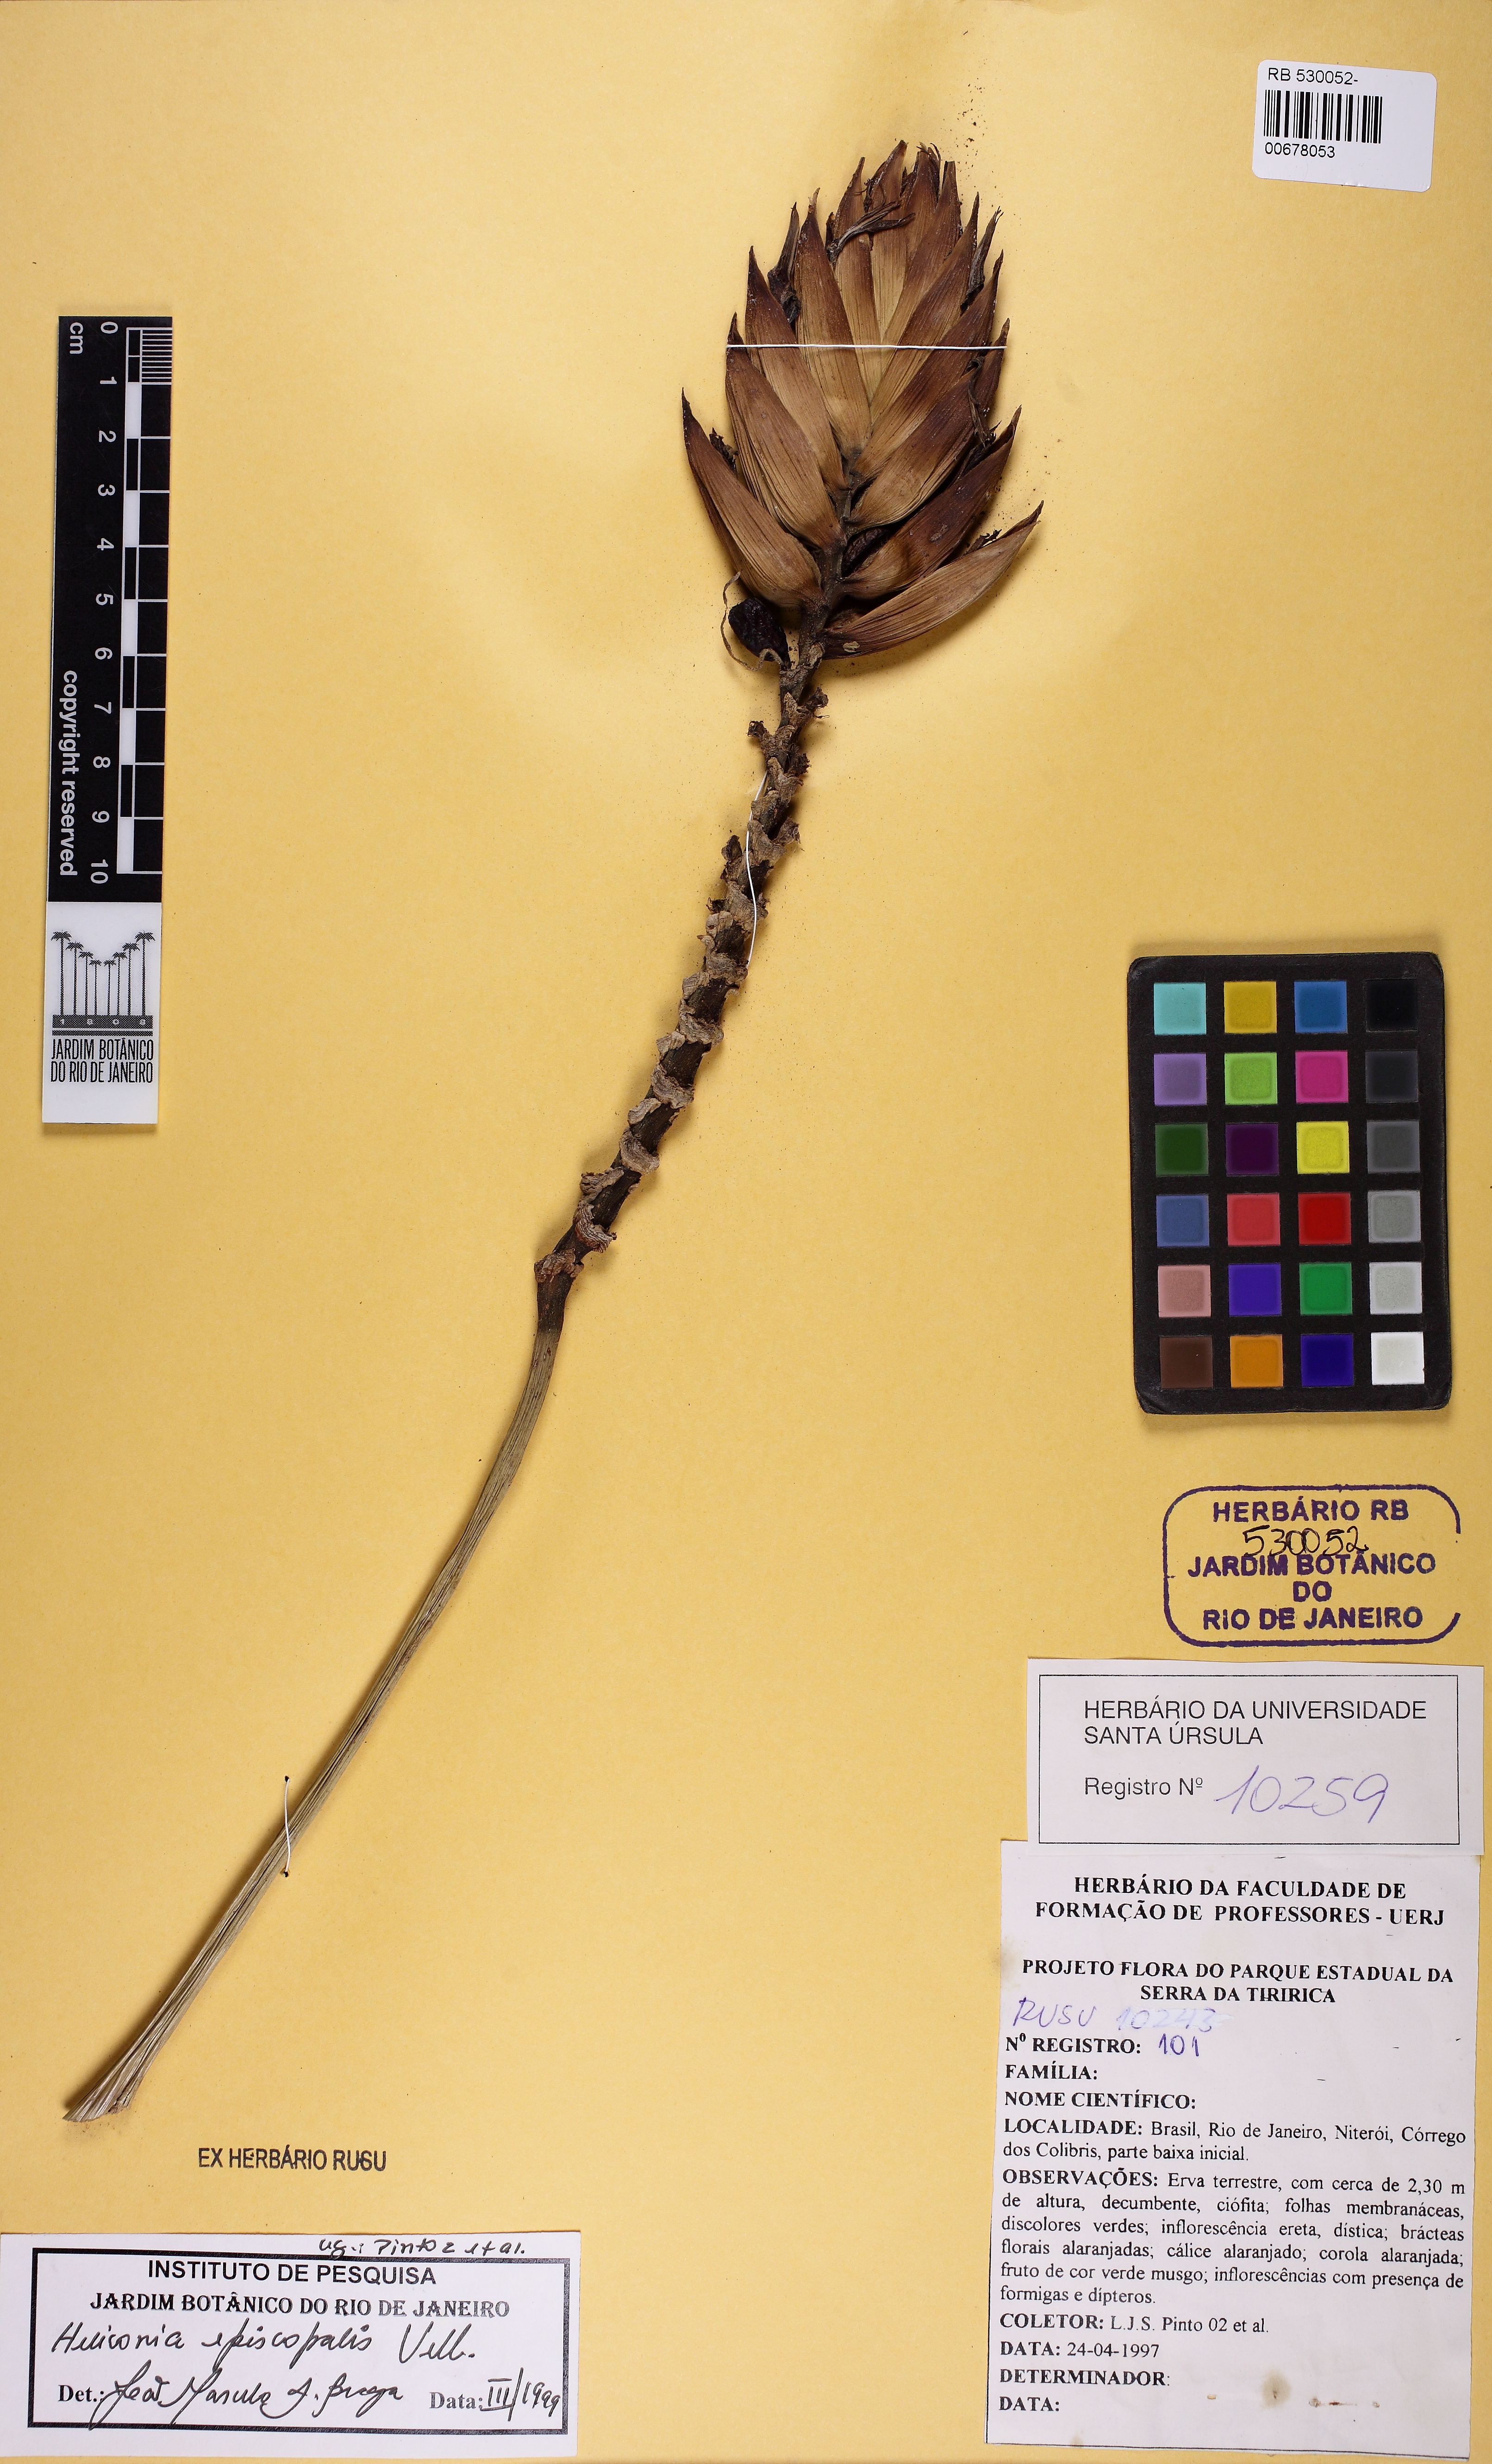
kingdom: Plantae
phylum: Tracheophyta
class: Liliopsida
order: Zingiberales
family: Heliconiaceae
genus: Heliconia
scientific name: Heliconia episcopalis
